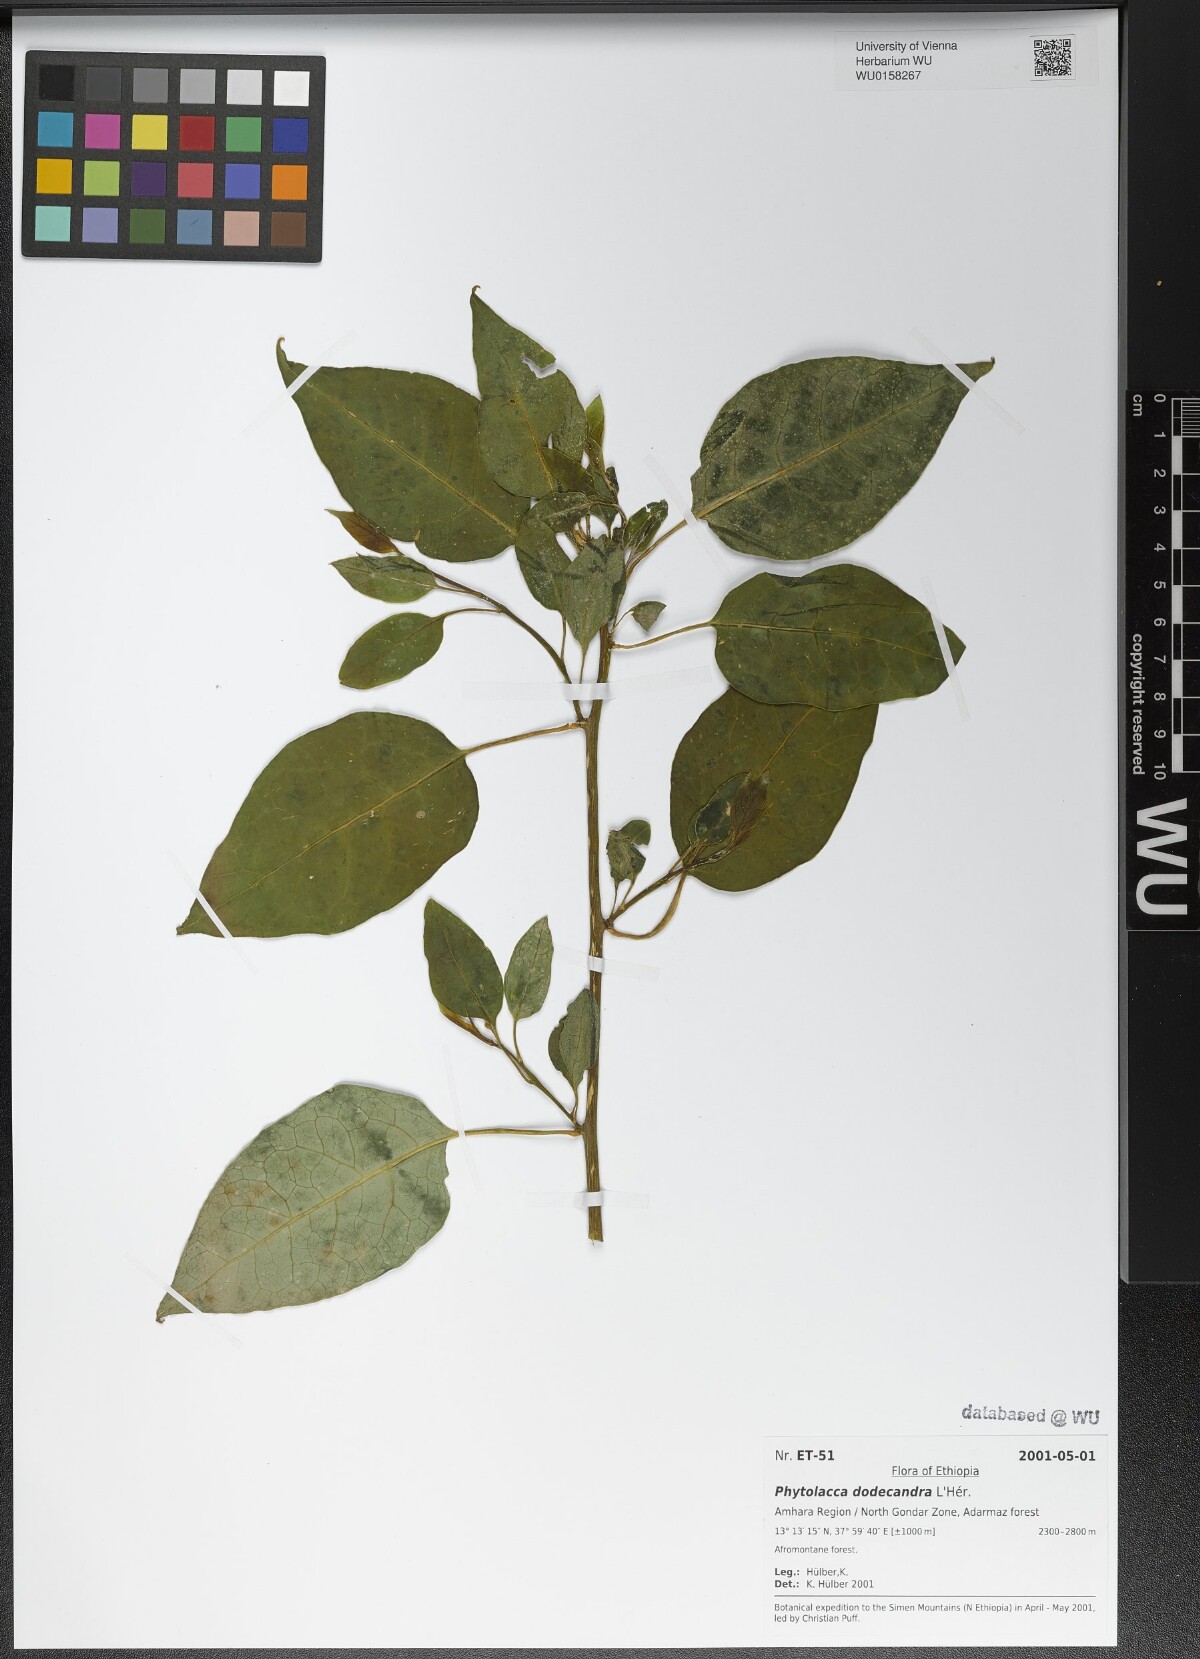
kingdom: Plantae
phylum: Tracheophyta
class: Magnoliopsida
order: Caryophyllales
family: Phytolaccaceae
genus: Phytolacca
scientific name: Phytolacca dodecandra
